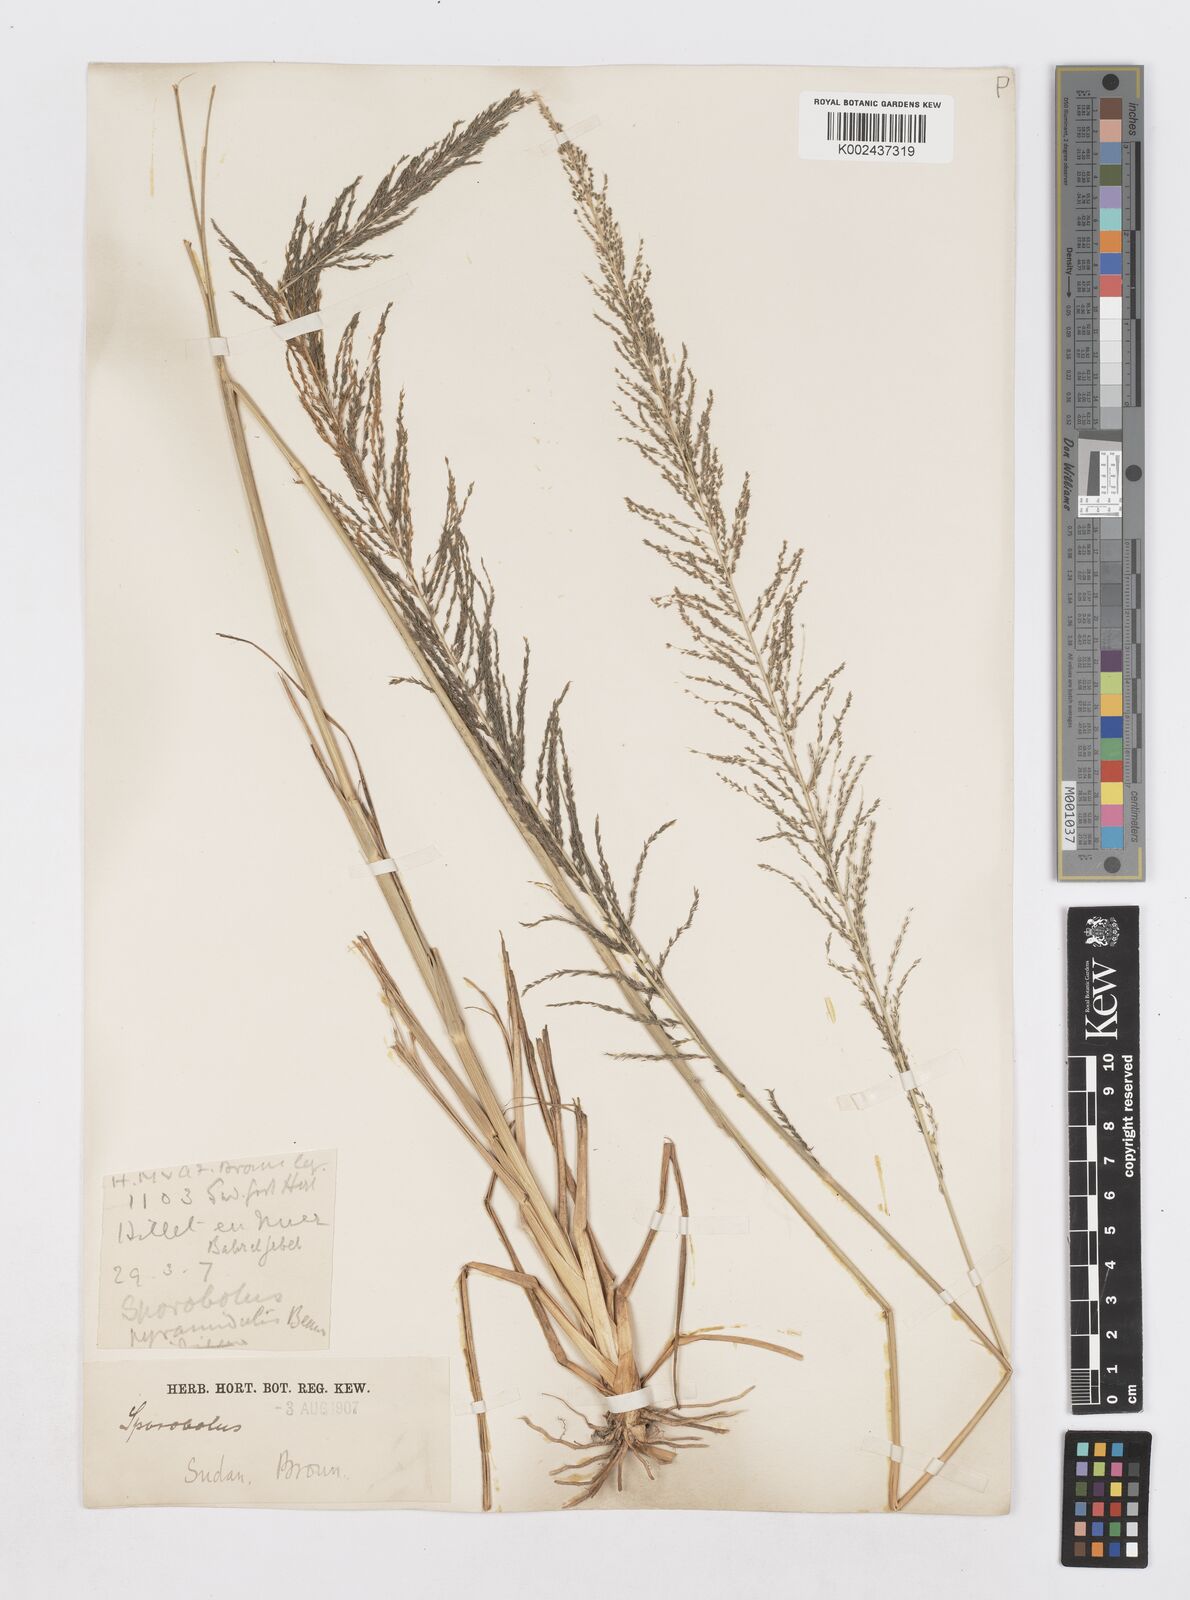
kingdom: Plantae
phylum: Tracheophyta
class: Liliopsida
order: Poales
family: Poaceae
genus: Sporobolus
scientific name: Sporobolus pyramidalis
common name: West indian dropseed
